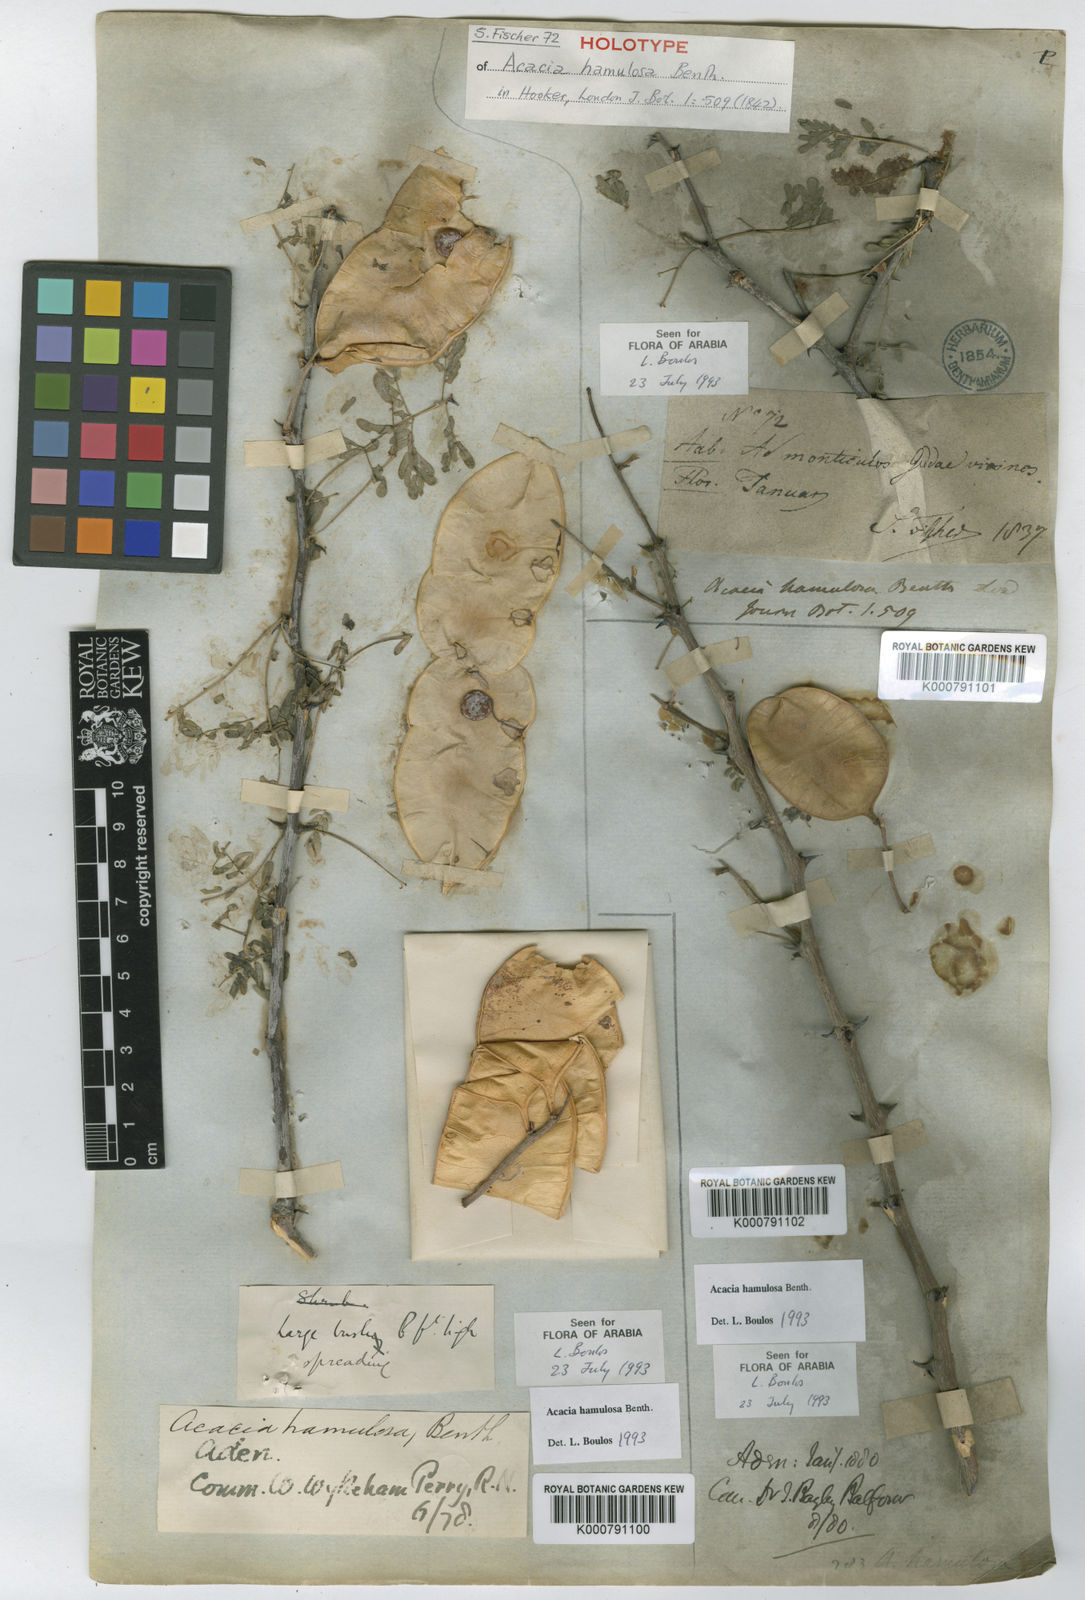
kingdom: Plantae
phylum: Tracheophyta
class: Magnoliopsida
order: Fabales
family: Fabaceae
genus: Senegalia
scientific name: Senegalia hamulosa
